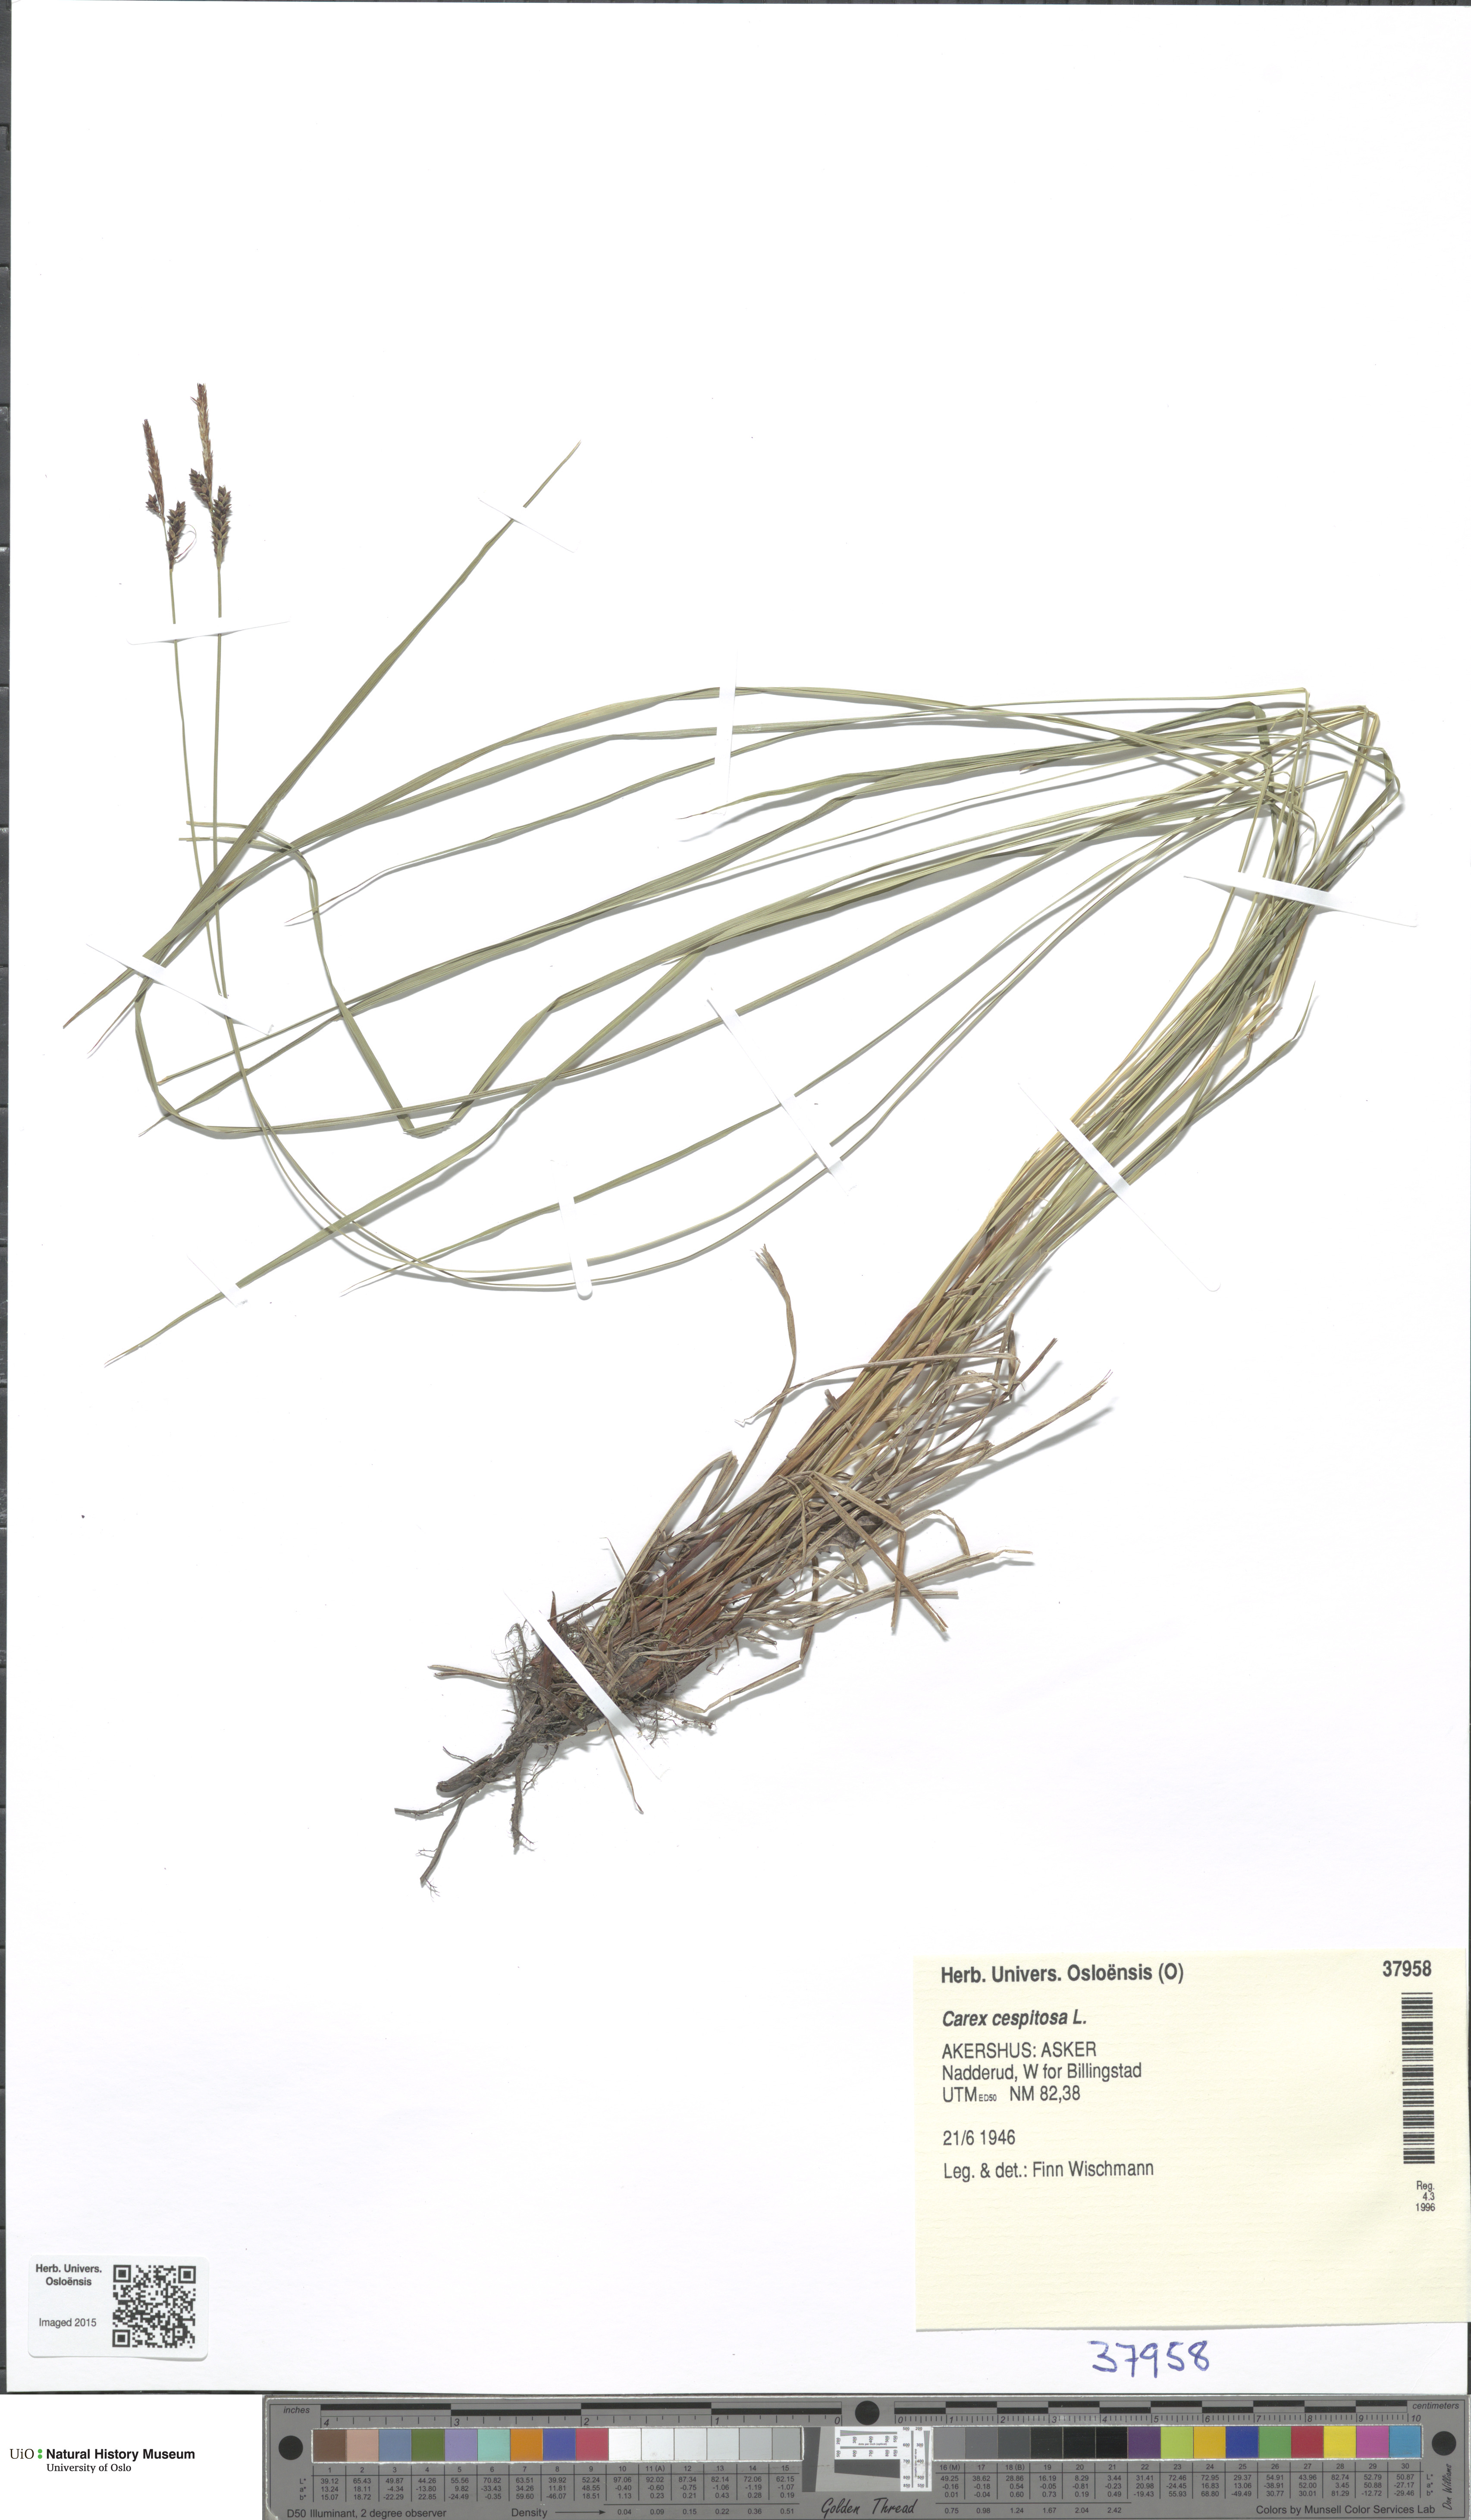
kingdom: Plantae
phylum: Tracheophyta
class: Liliopsida
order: Poales
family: Cyperaceae
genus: Carex
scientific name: Carex cespitosa
